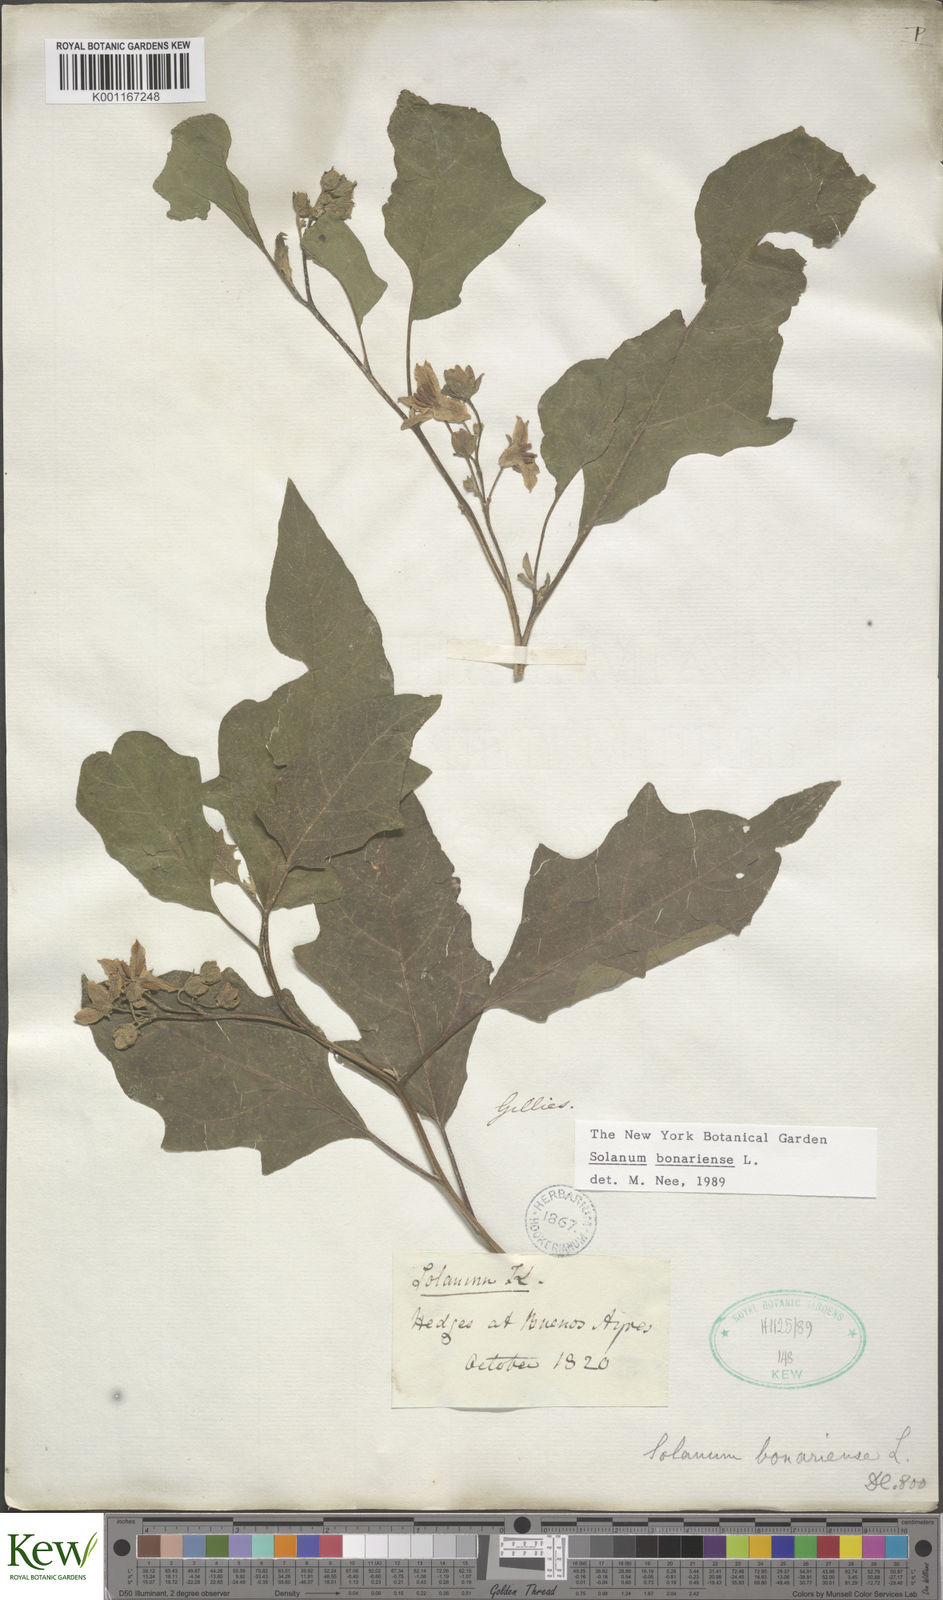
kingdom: Plantae
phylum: Tracheophyta
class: Magnoliopsida
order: Solanales
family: Solanaceae
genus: Solanum
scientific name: Solanum bonariense
